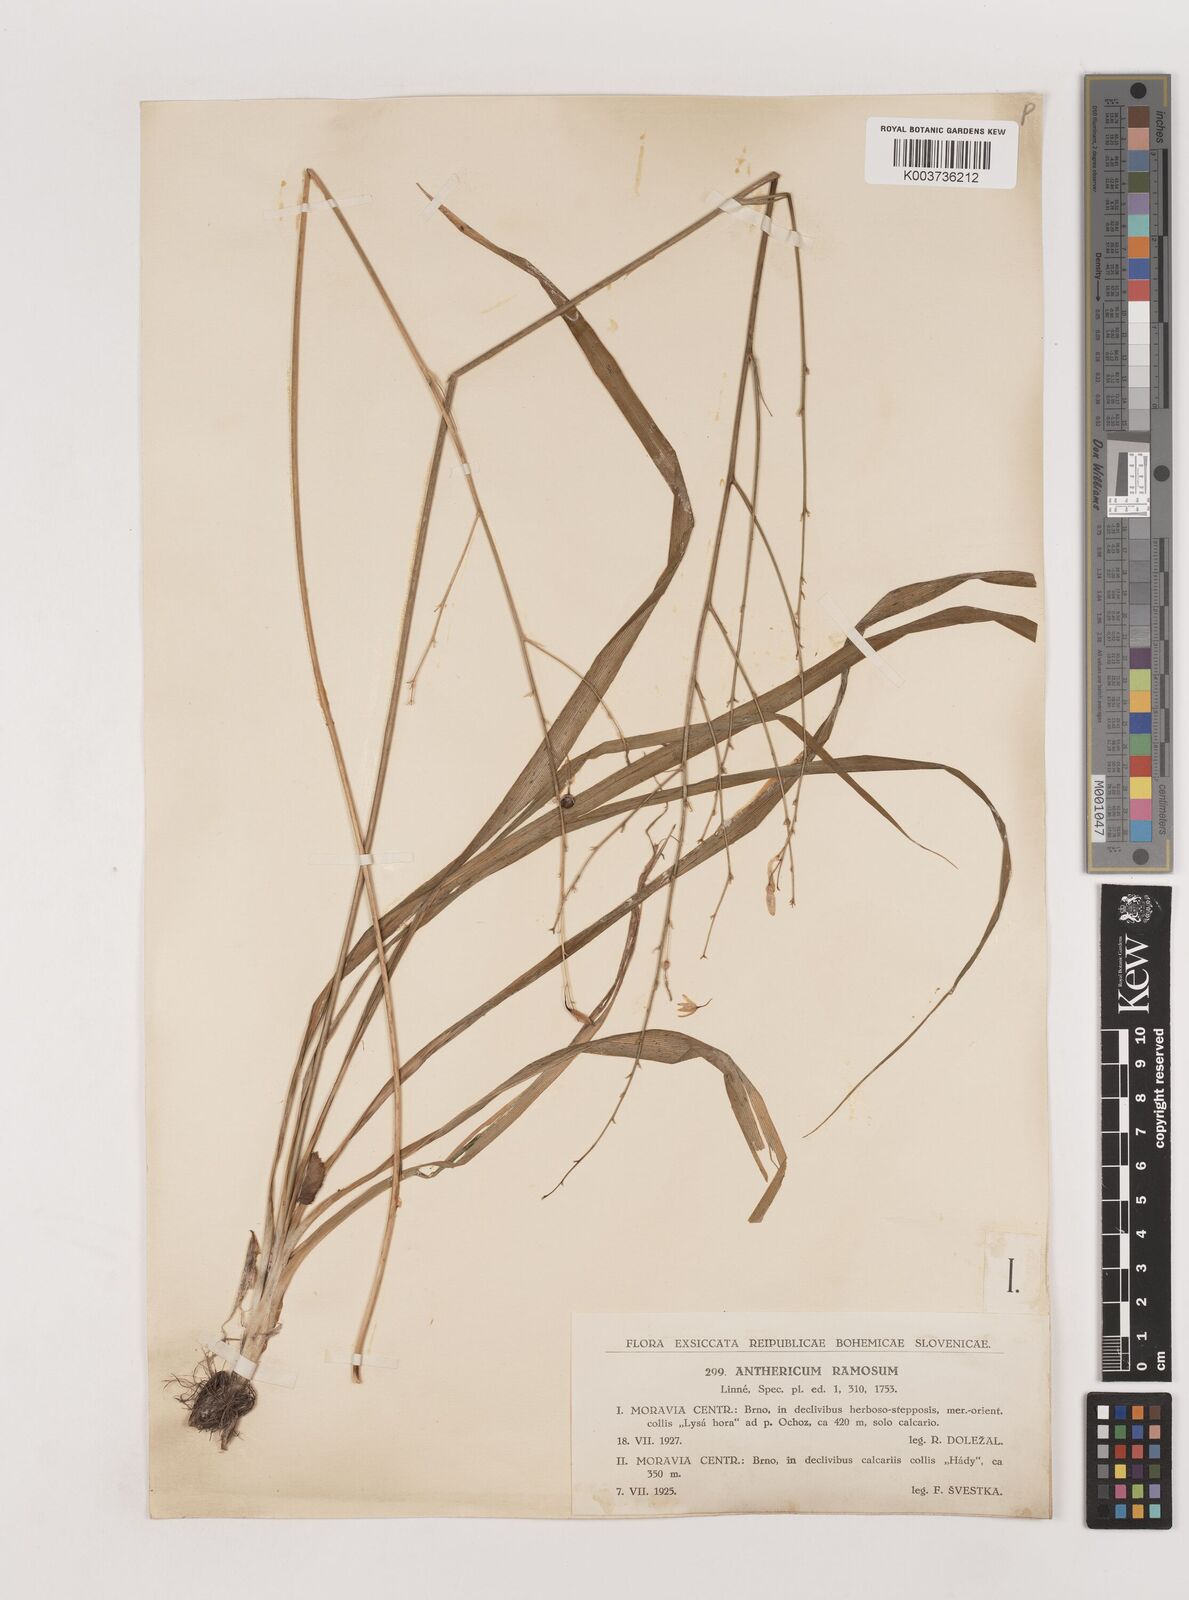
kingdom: Plantae
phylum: Tracheophyta
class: Liliopsida
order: Asparagales
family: Asparagaceae
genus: Chlorophytum
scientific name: Chlorophytum comosum
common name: Spider plant
